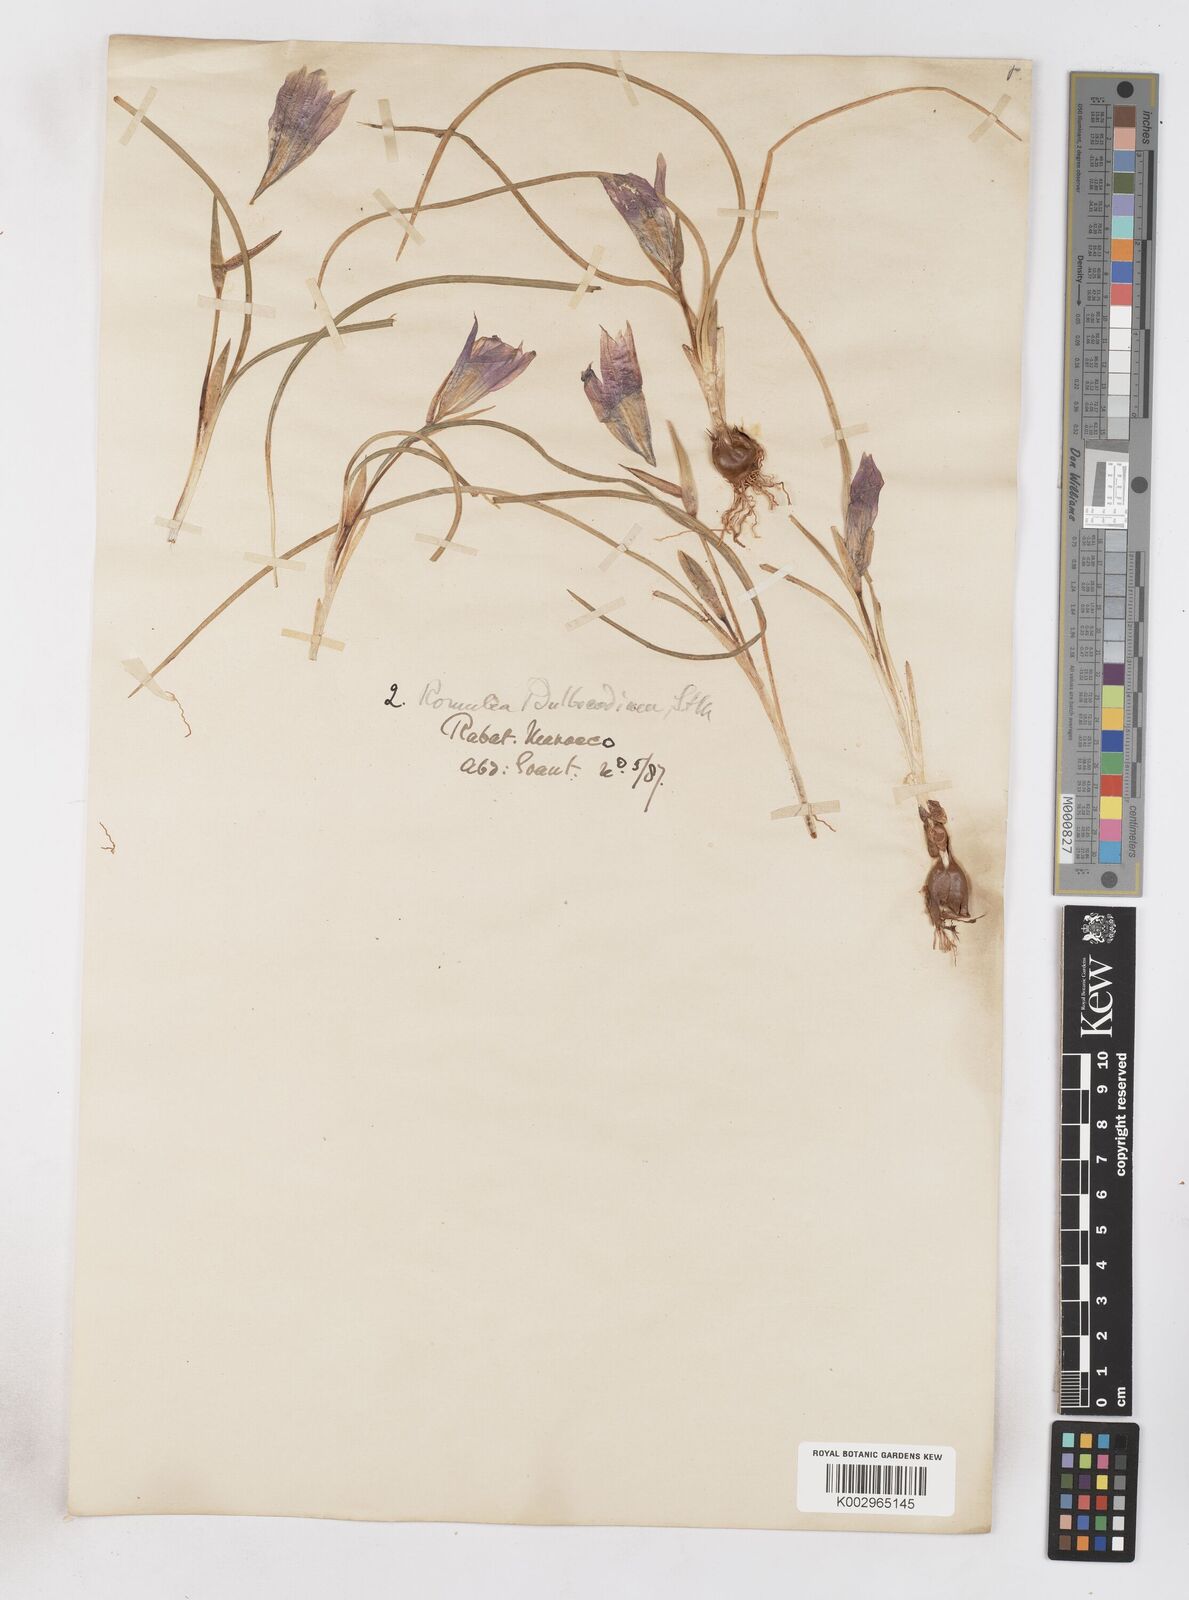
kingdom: Plantae
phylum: Tracheophyta
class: Liliopsida
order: Asparagales
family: Iridaceae
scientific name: Iridaceae
